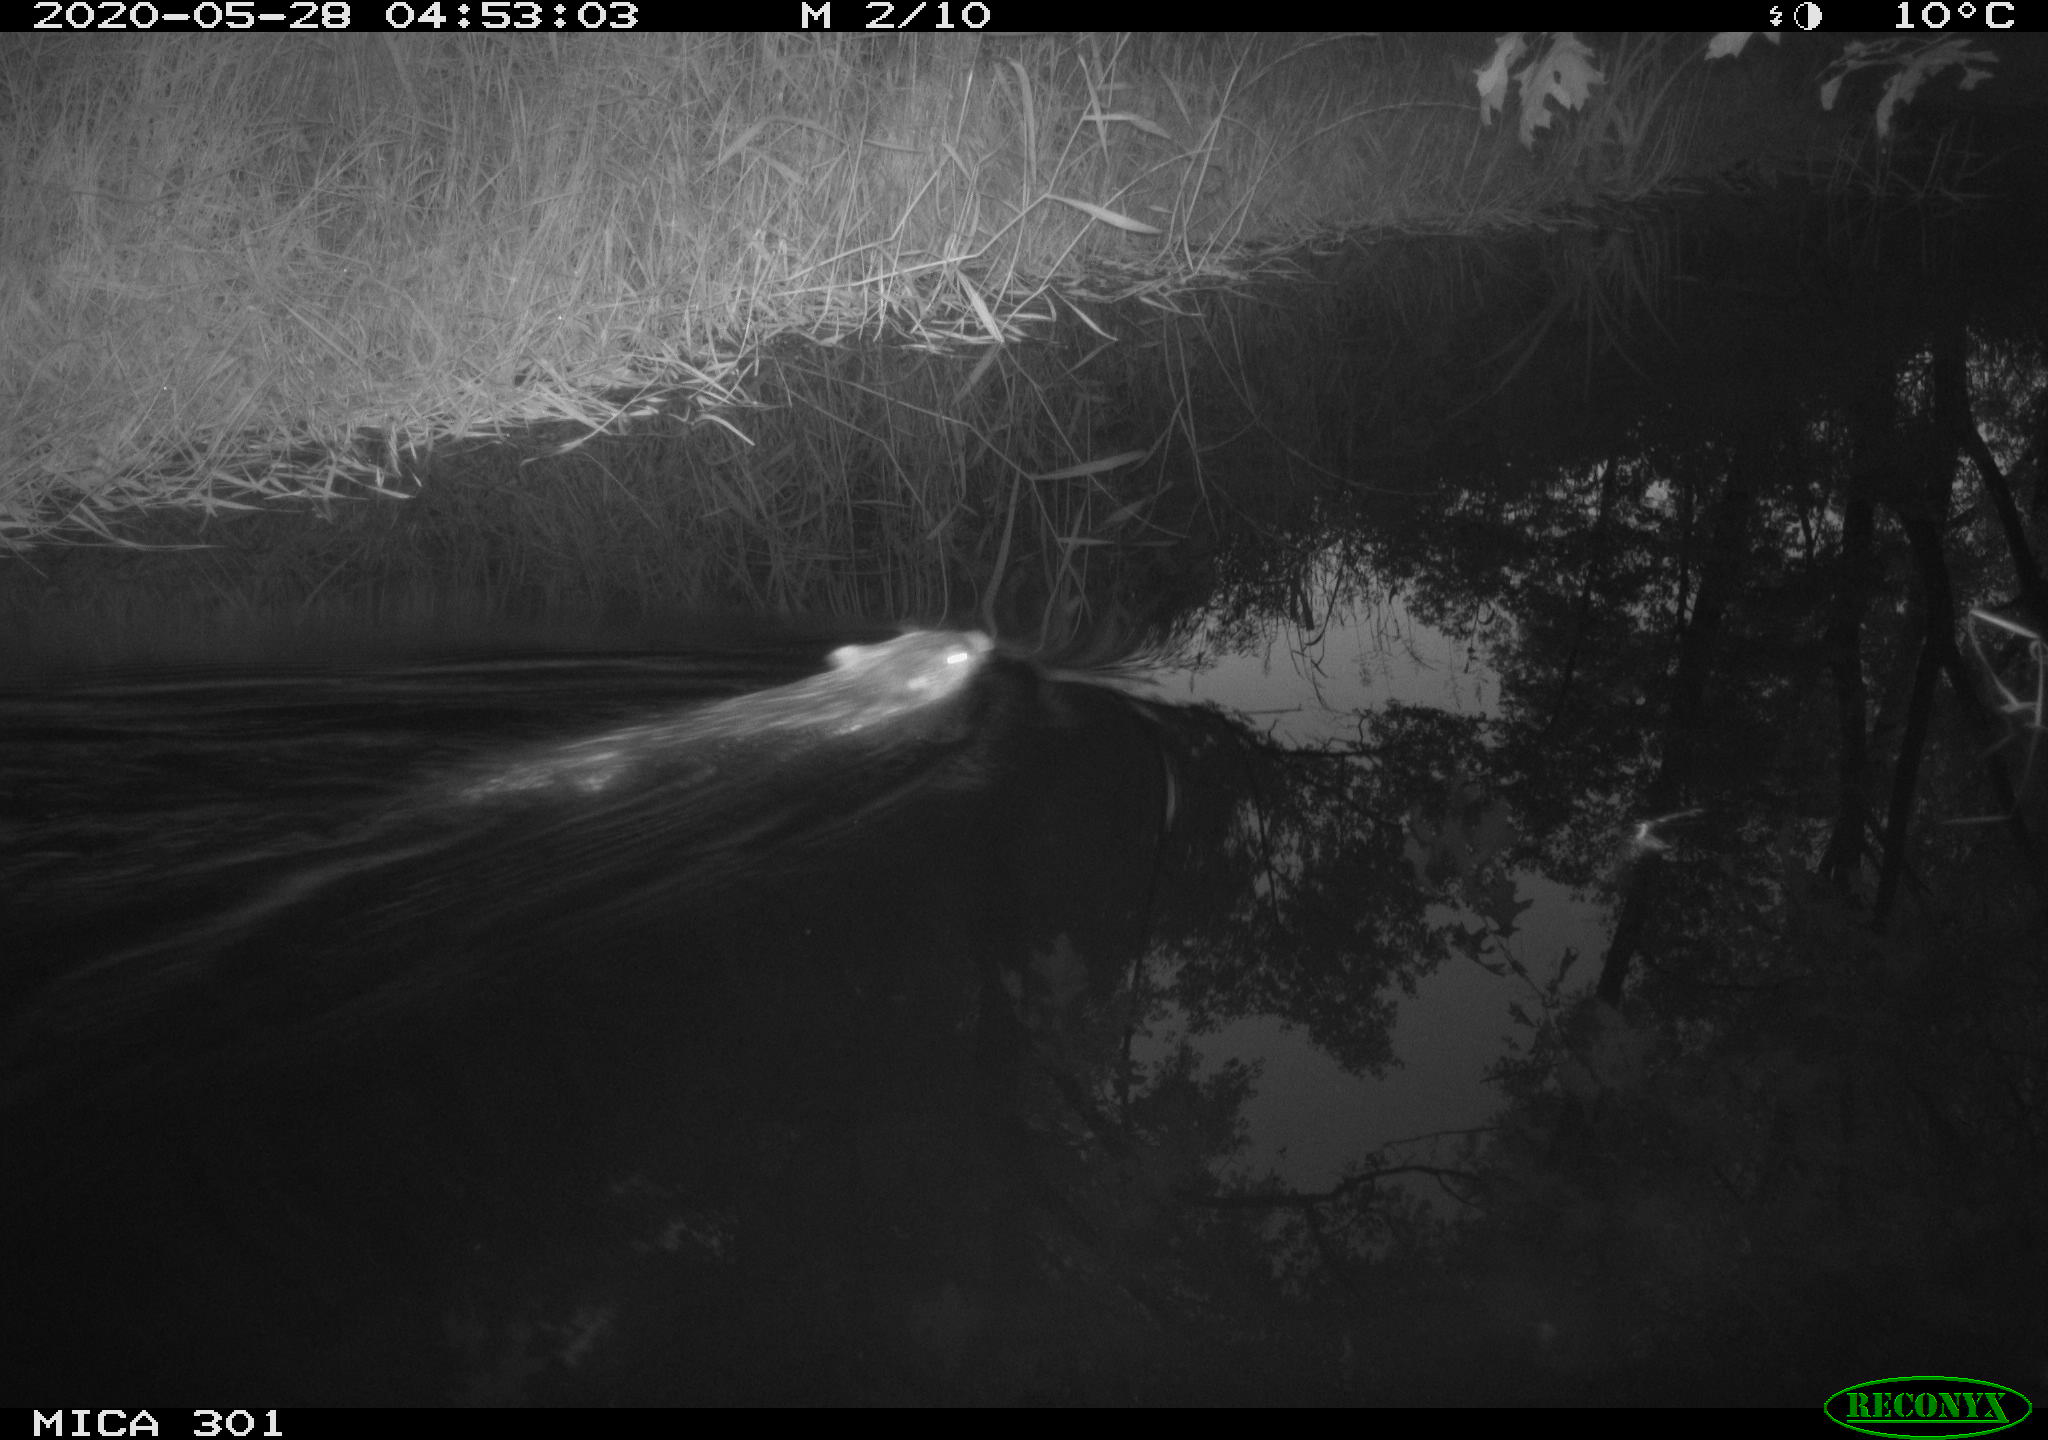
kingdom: Animalia
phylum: Chordata
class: Mammalia
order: Rodentia
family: Castoridae
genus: Castor
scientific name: Castor fiber
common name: Eurasian beaver
